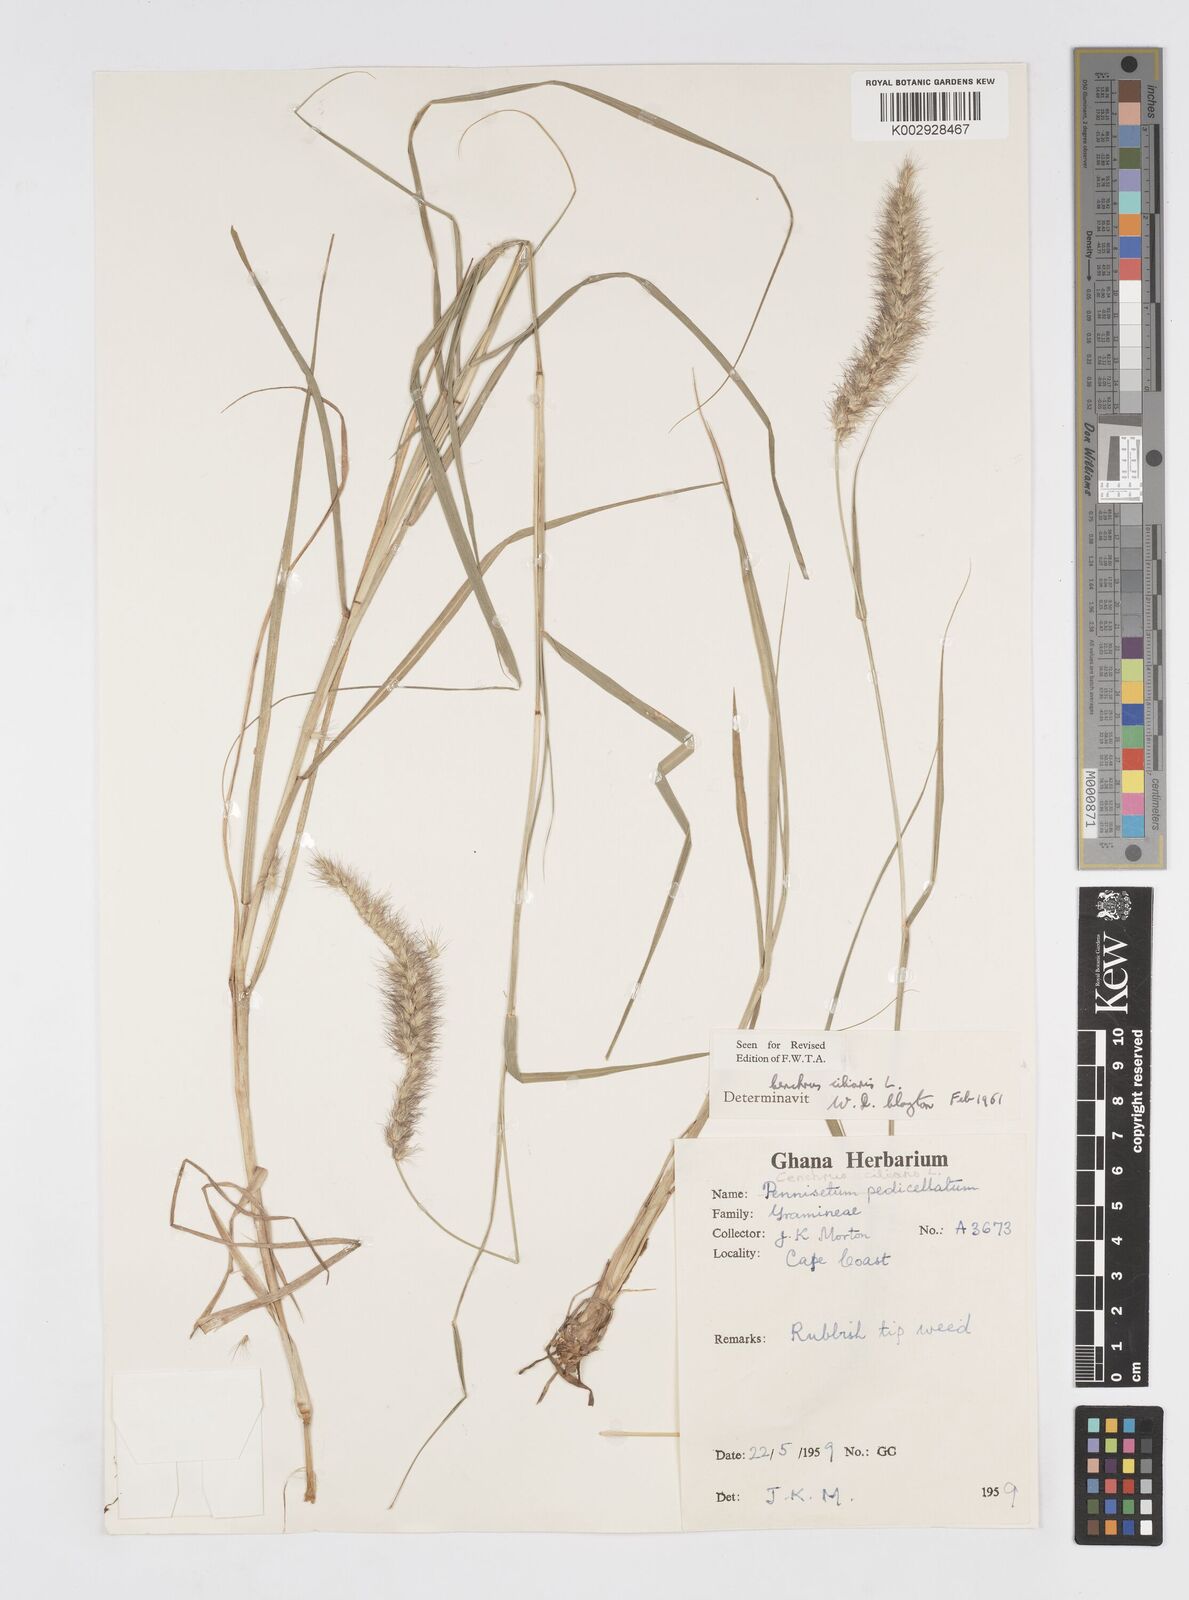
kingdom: Plantae
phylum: Tracheophyta
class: Liliopsida
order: Poales
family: Poaceae
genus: Cenchrus
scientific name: Cenchrus ciliaris
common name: Buffelgrass
